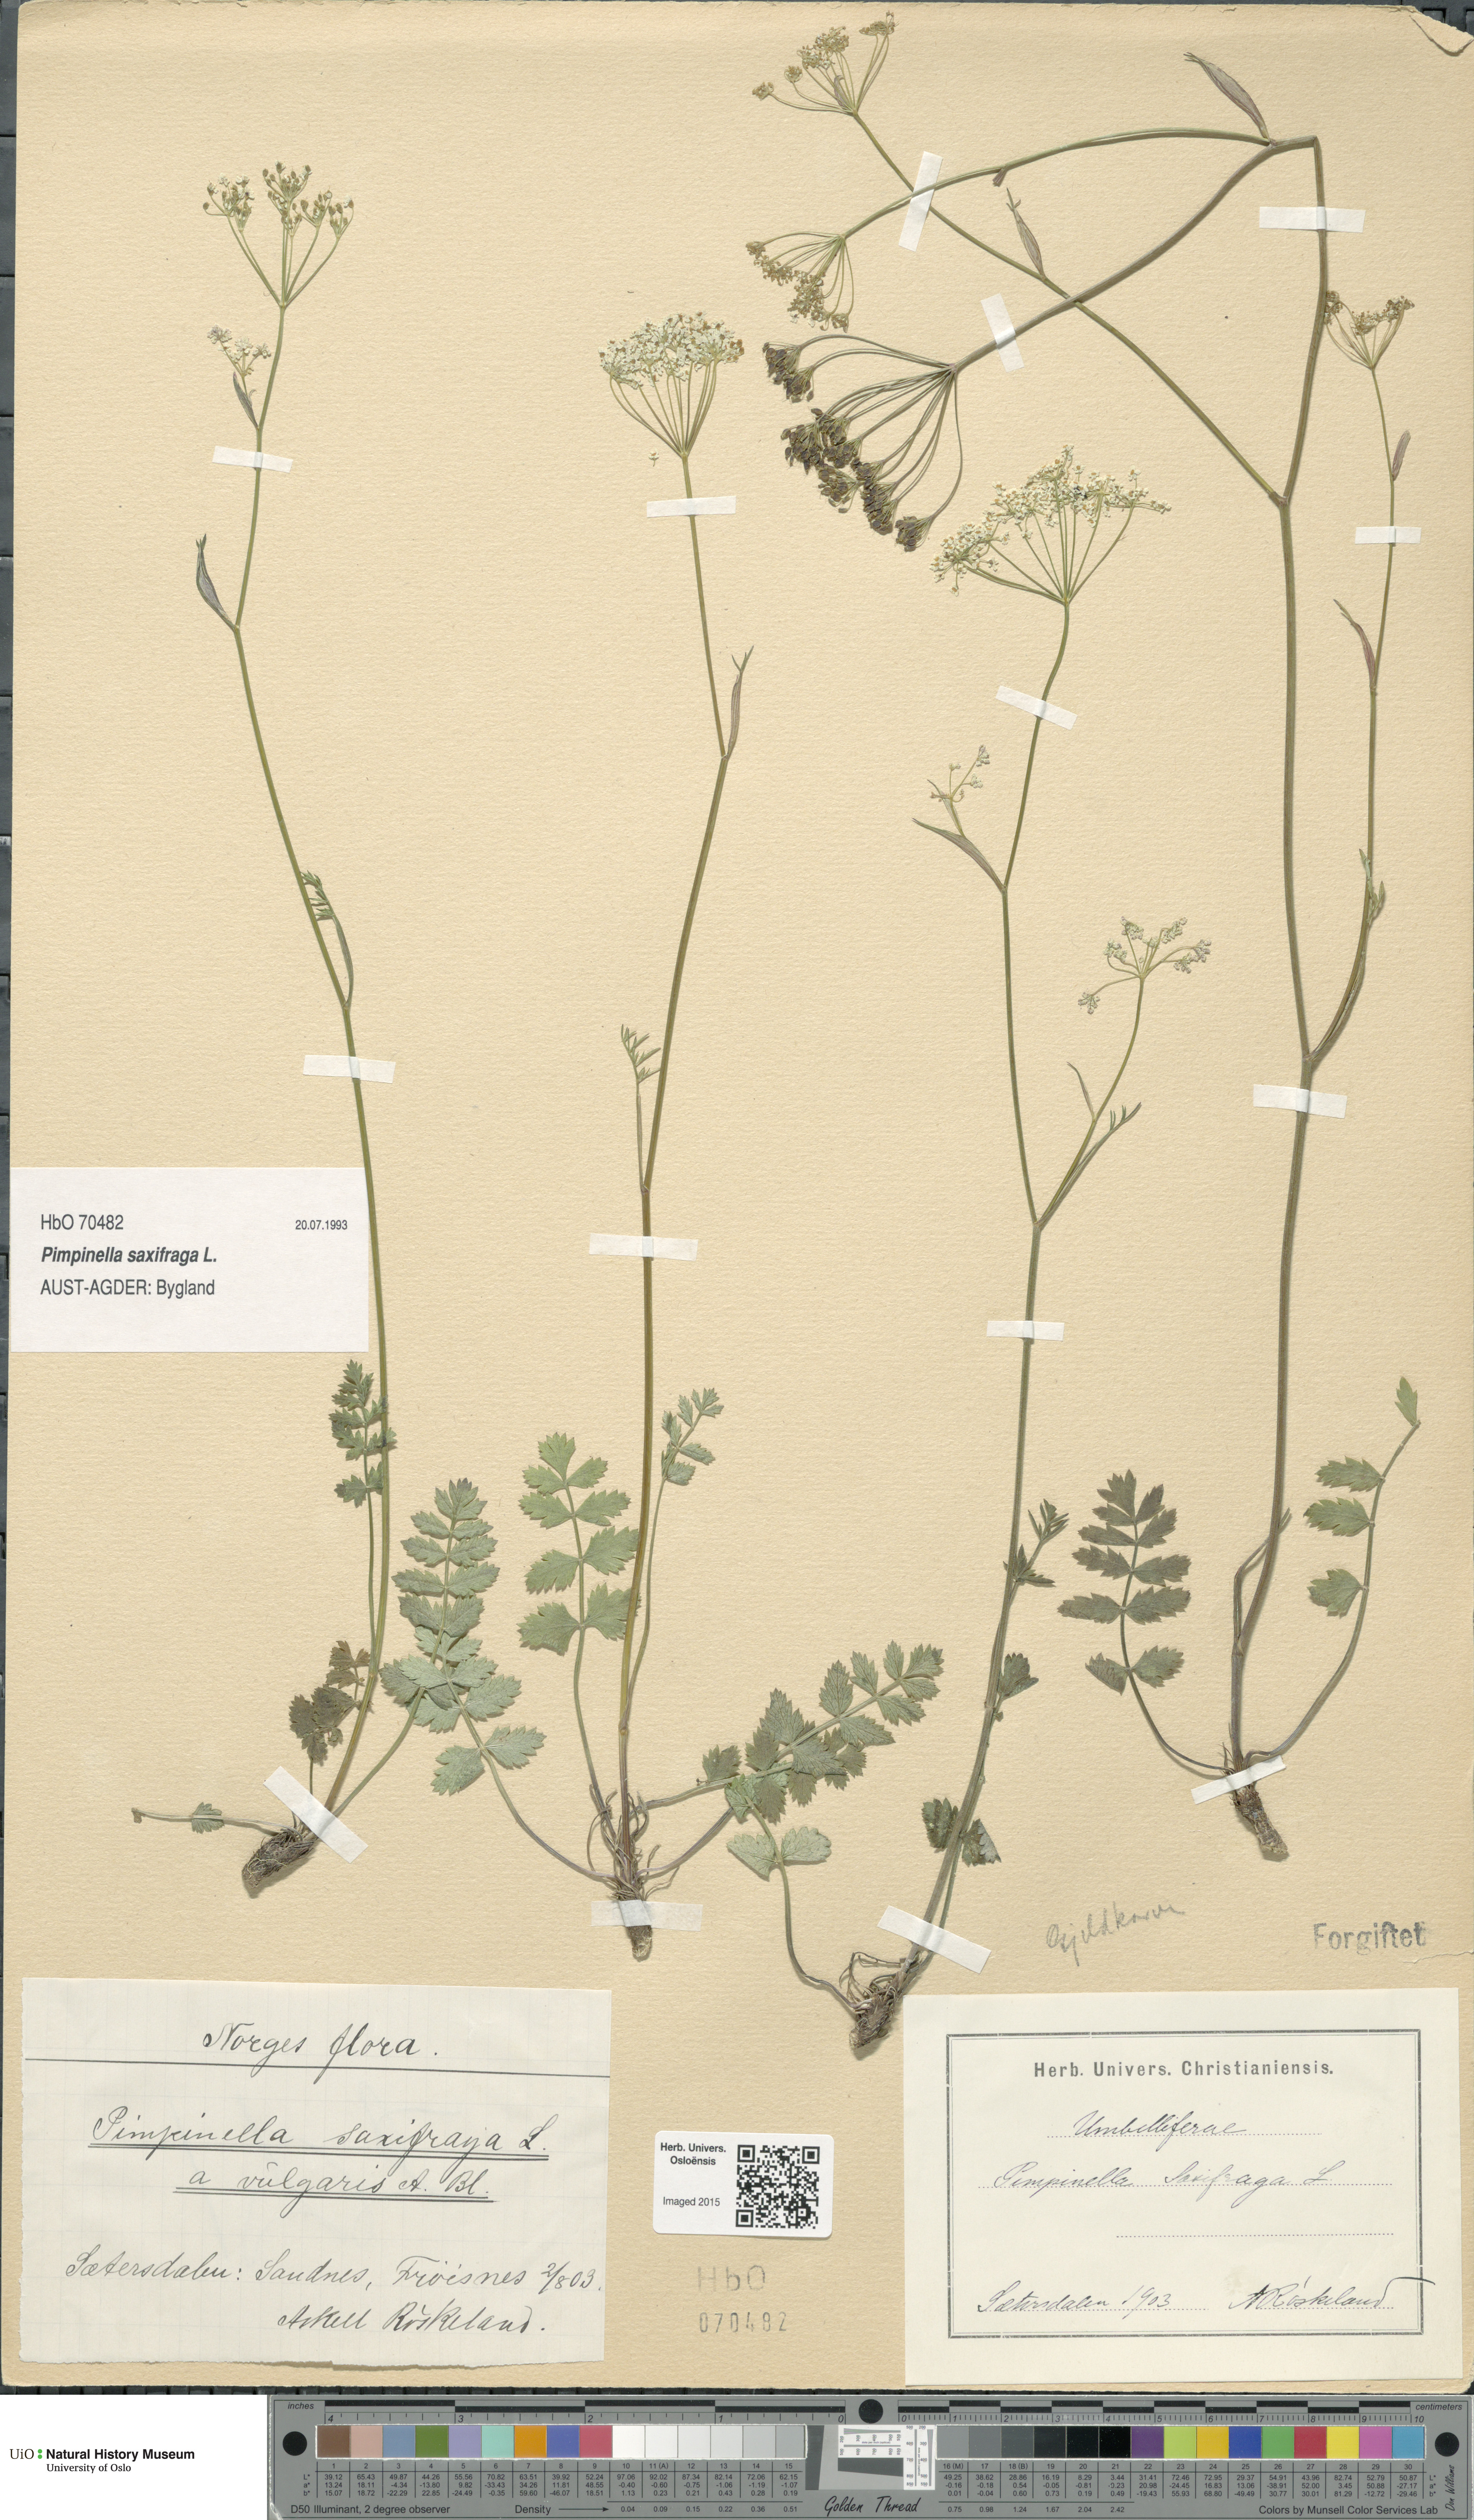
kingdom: Plantae
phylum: Tracheophyta
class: Magnoliopsida
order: Apiales
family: Apiaceae
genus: Pimpinella
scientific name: Pimpinella saxifraga
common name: Burnet-saxifrage
